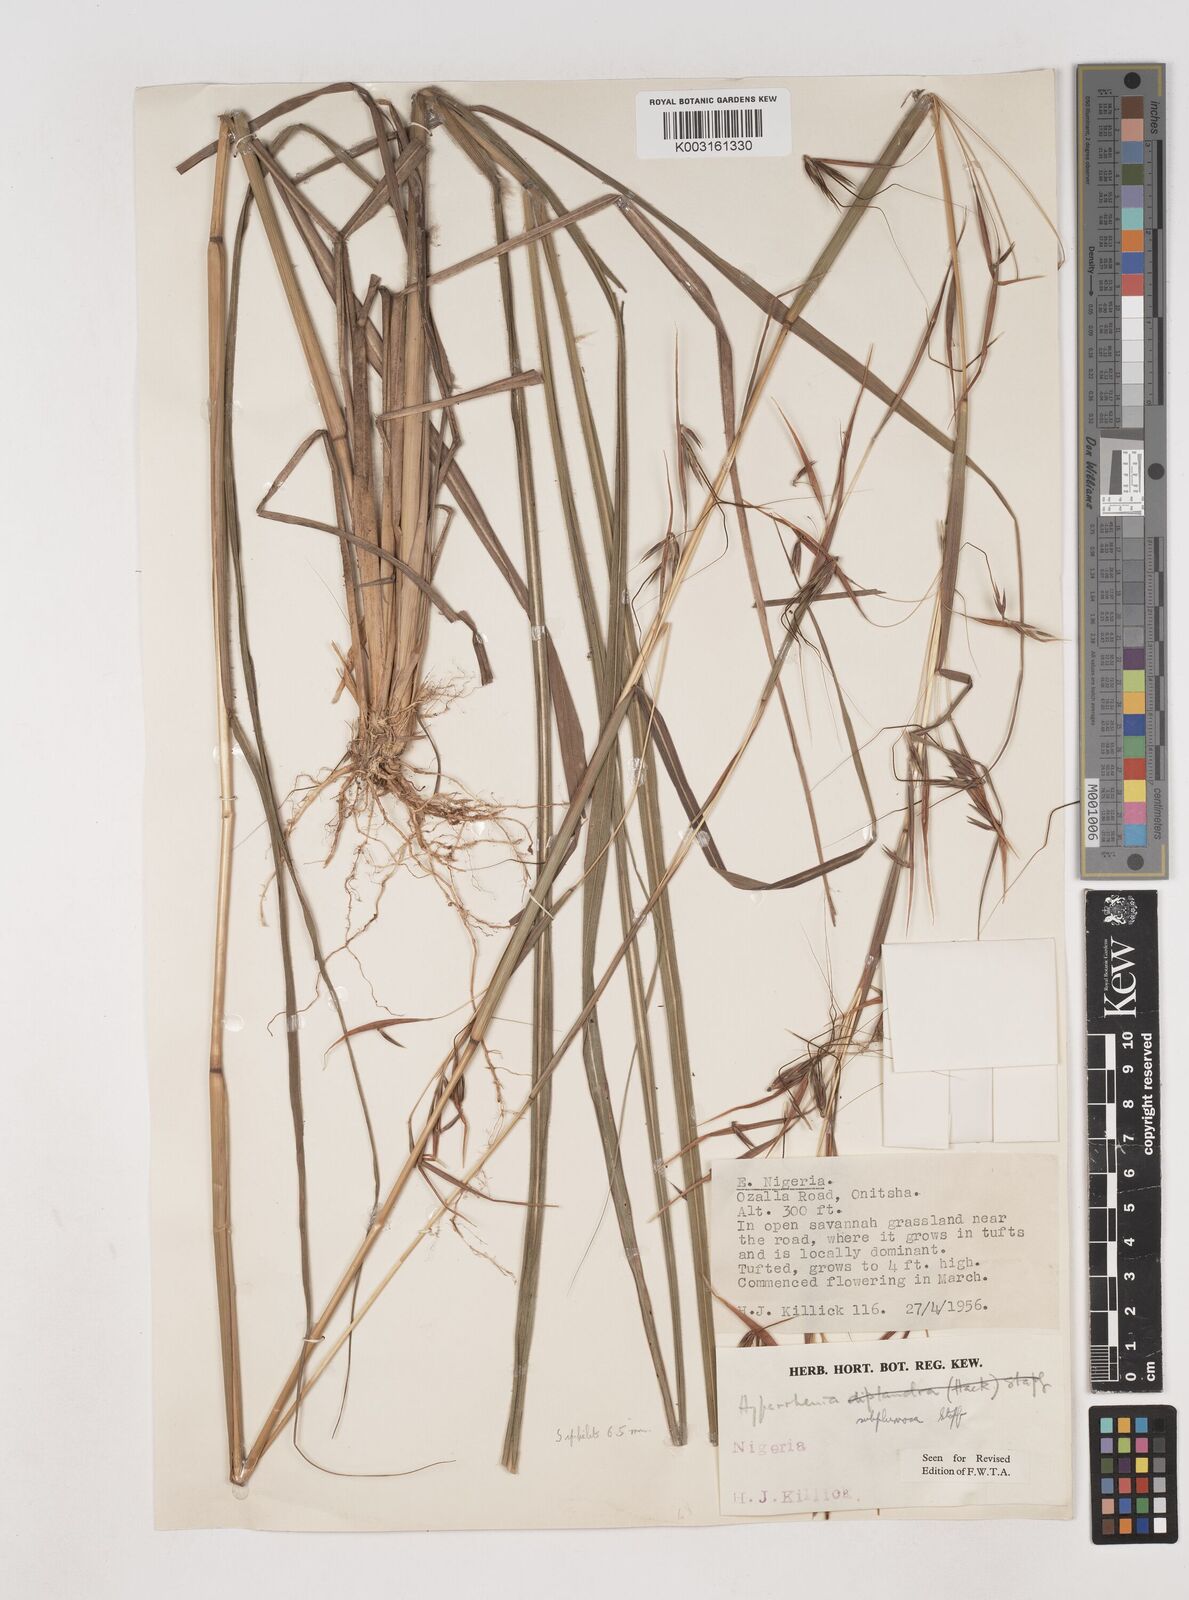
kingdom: Plantae
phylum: Tracheophyta
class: Liliopsida
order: Poales
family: Poaceae
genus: Hyparrhenia
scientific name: Hyparrhenia subplumosa
